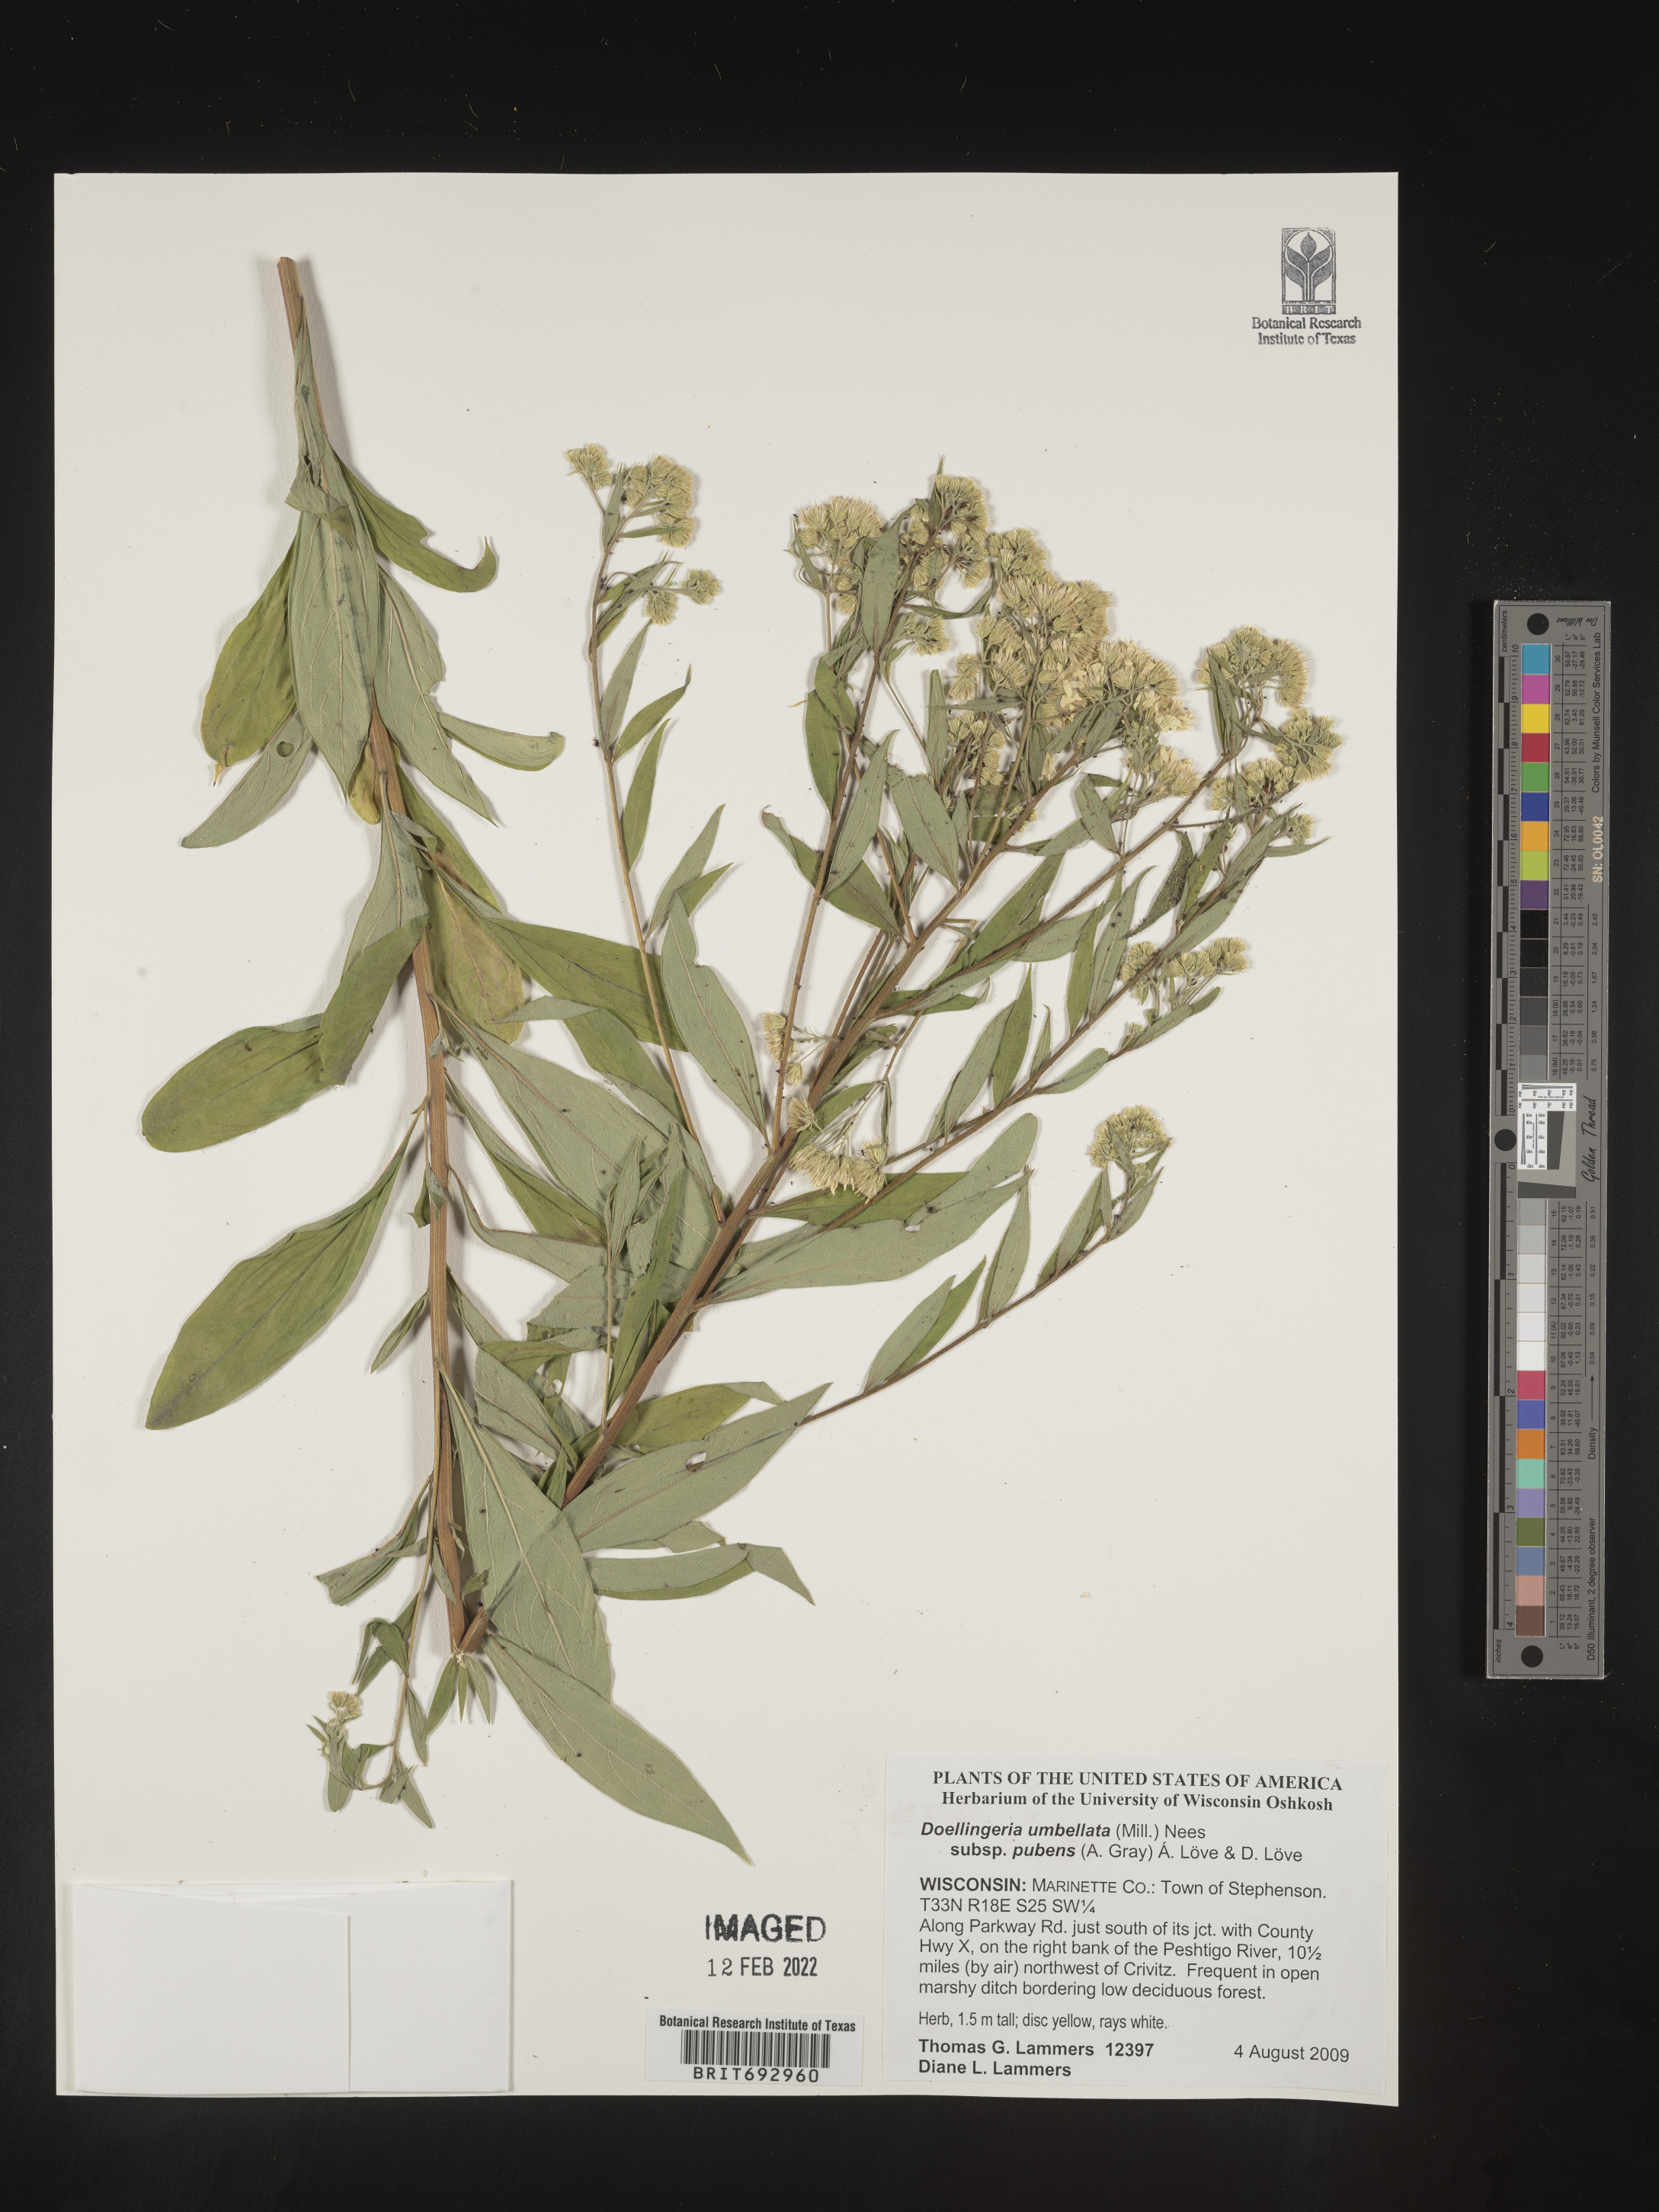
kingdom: Plantae
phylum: Tracheophyta
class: Magnoliopsida
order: Asterales
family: Asteraceae
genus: Doellingeria
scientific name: Doellingeria umbellata
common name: Flat-top white aster
